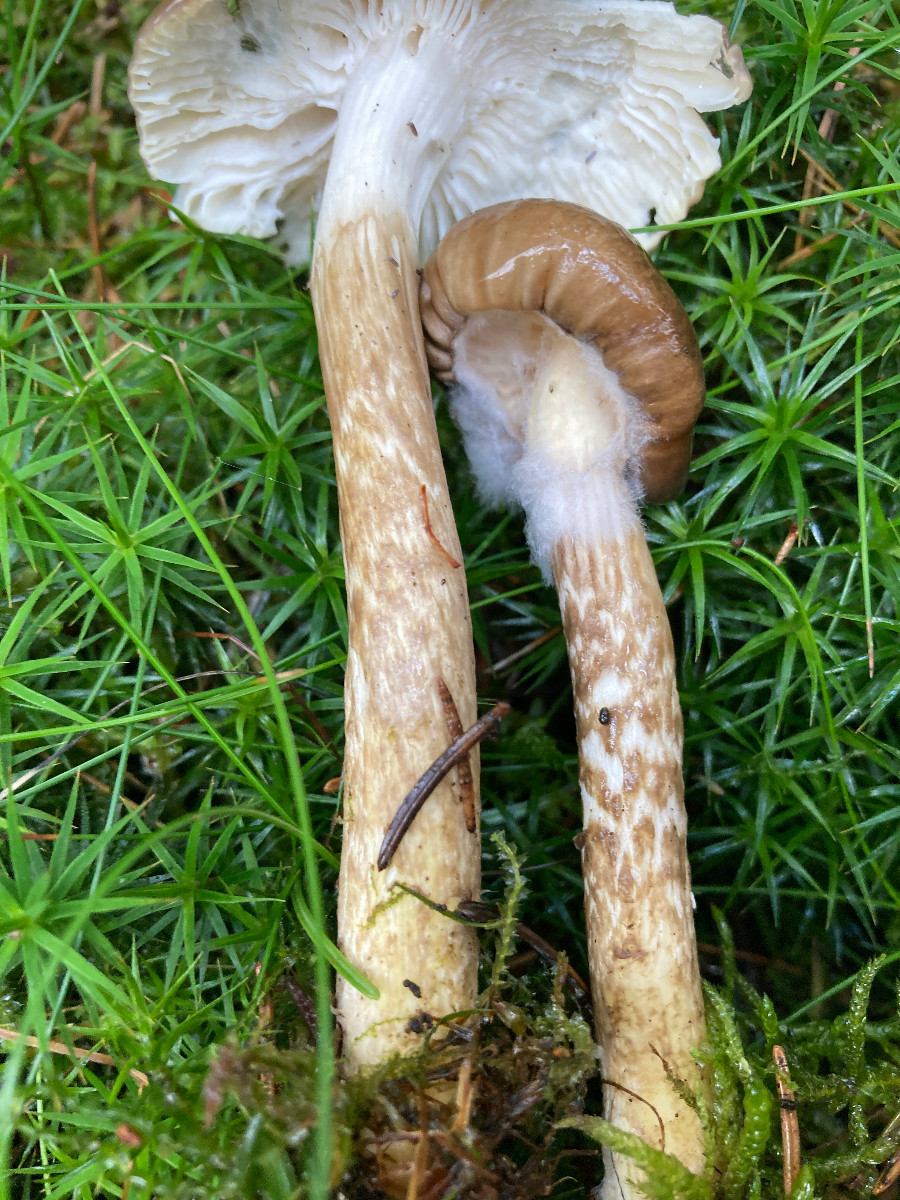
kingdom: Fungi
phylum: Basidiomycota
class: Agaricomycetes
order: Agaricales
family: Hygrophoraceae
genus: Hygrophorus
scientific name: Hygrophorus olivaceoalbus
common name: hvidbrun sneglehat
